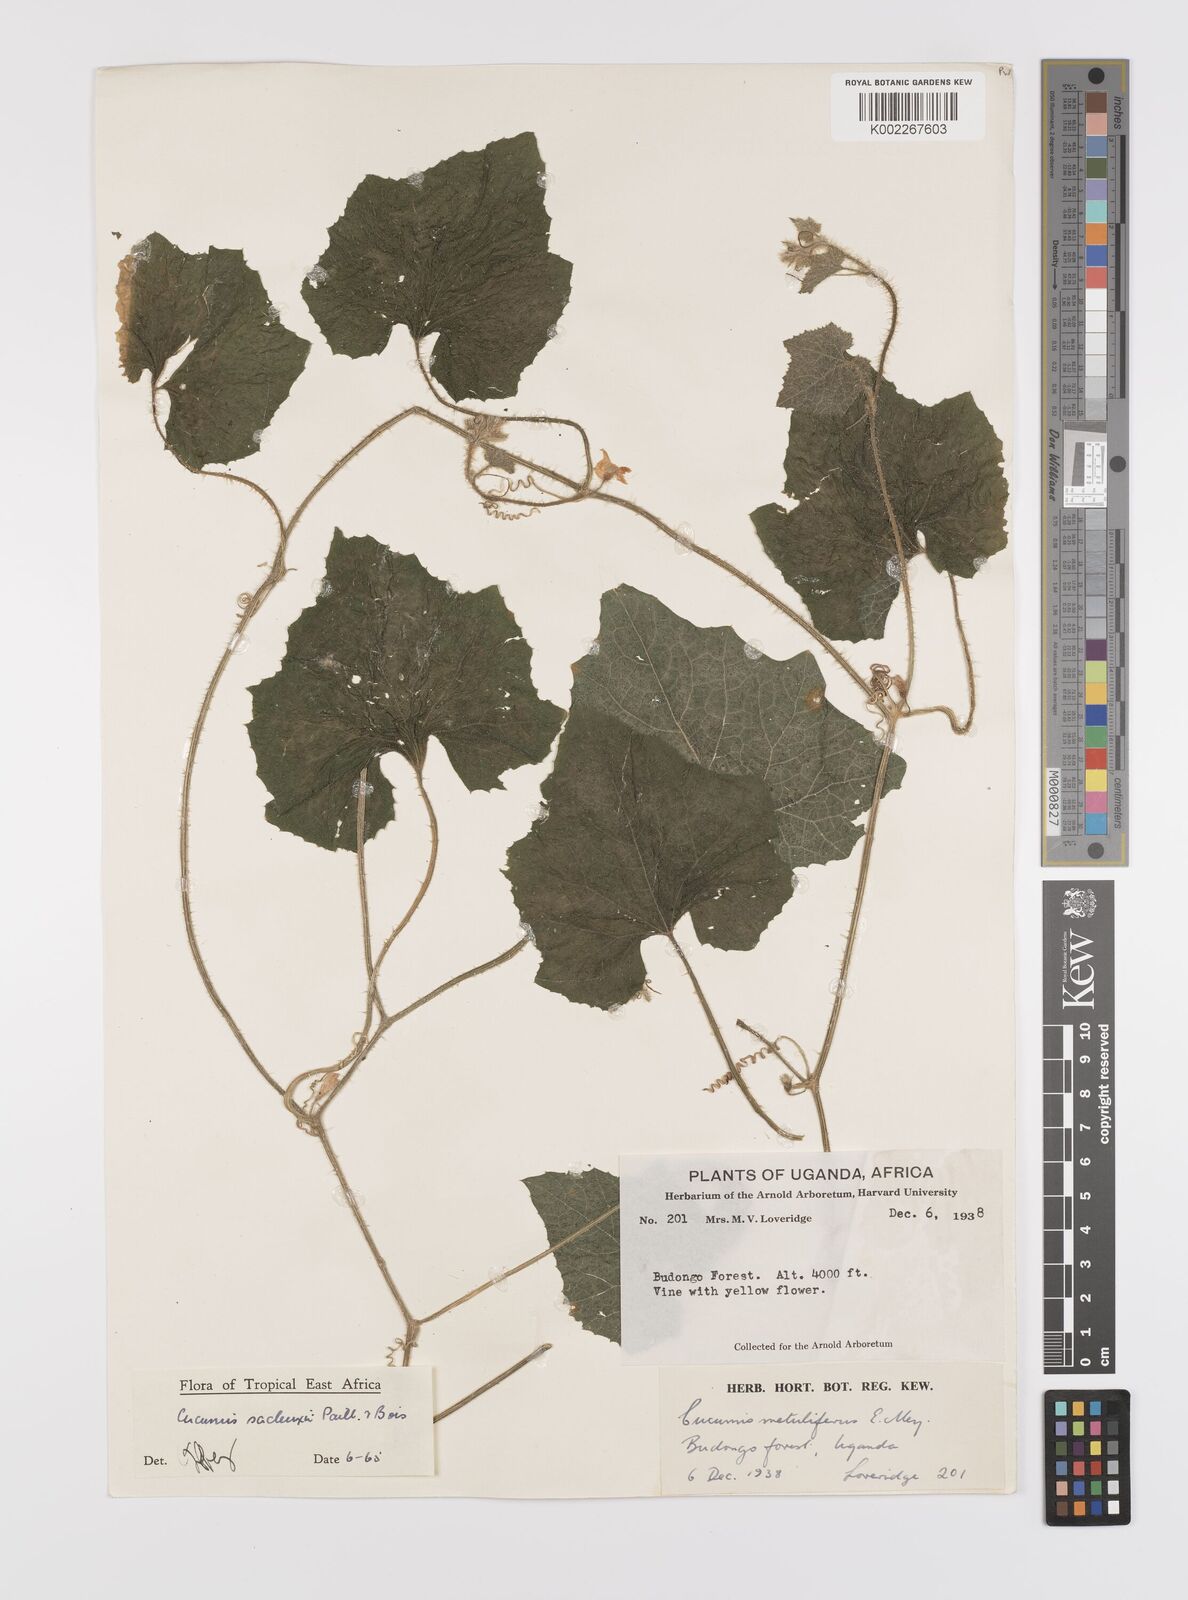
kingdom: Plantae
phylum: Tracheophyta
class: Magnoliopsida
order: Cucurbitales
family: Cucurbitaceae
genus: Cucumis
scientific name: Cucumis sacleuxii
